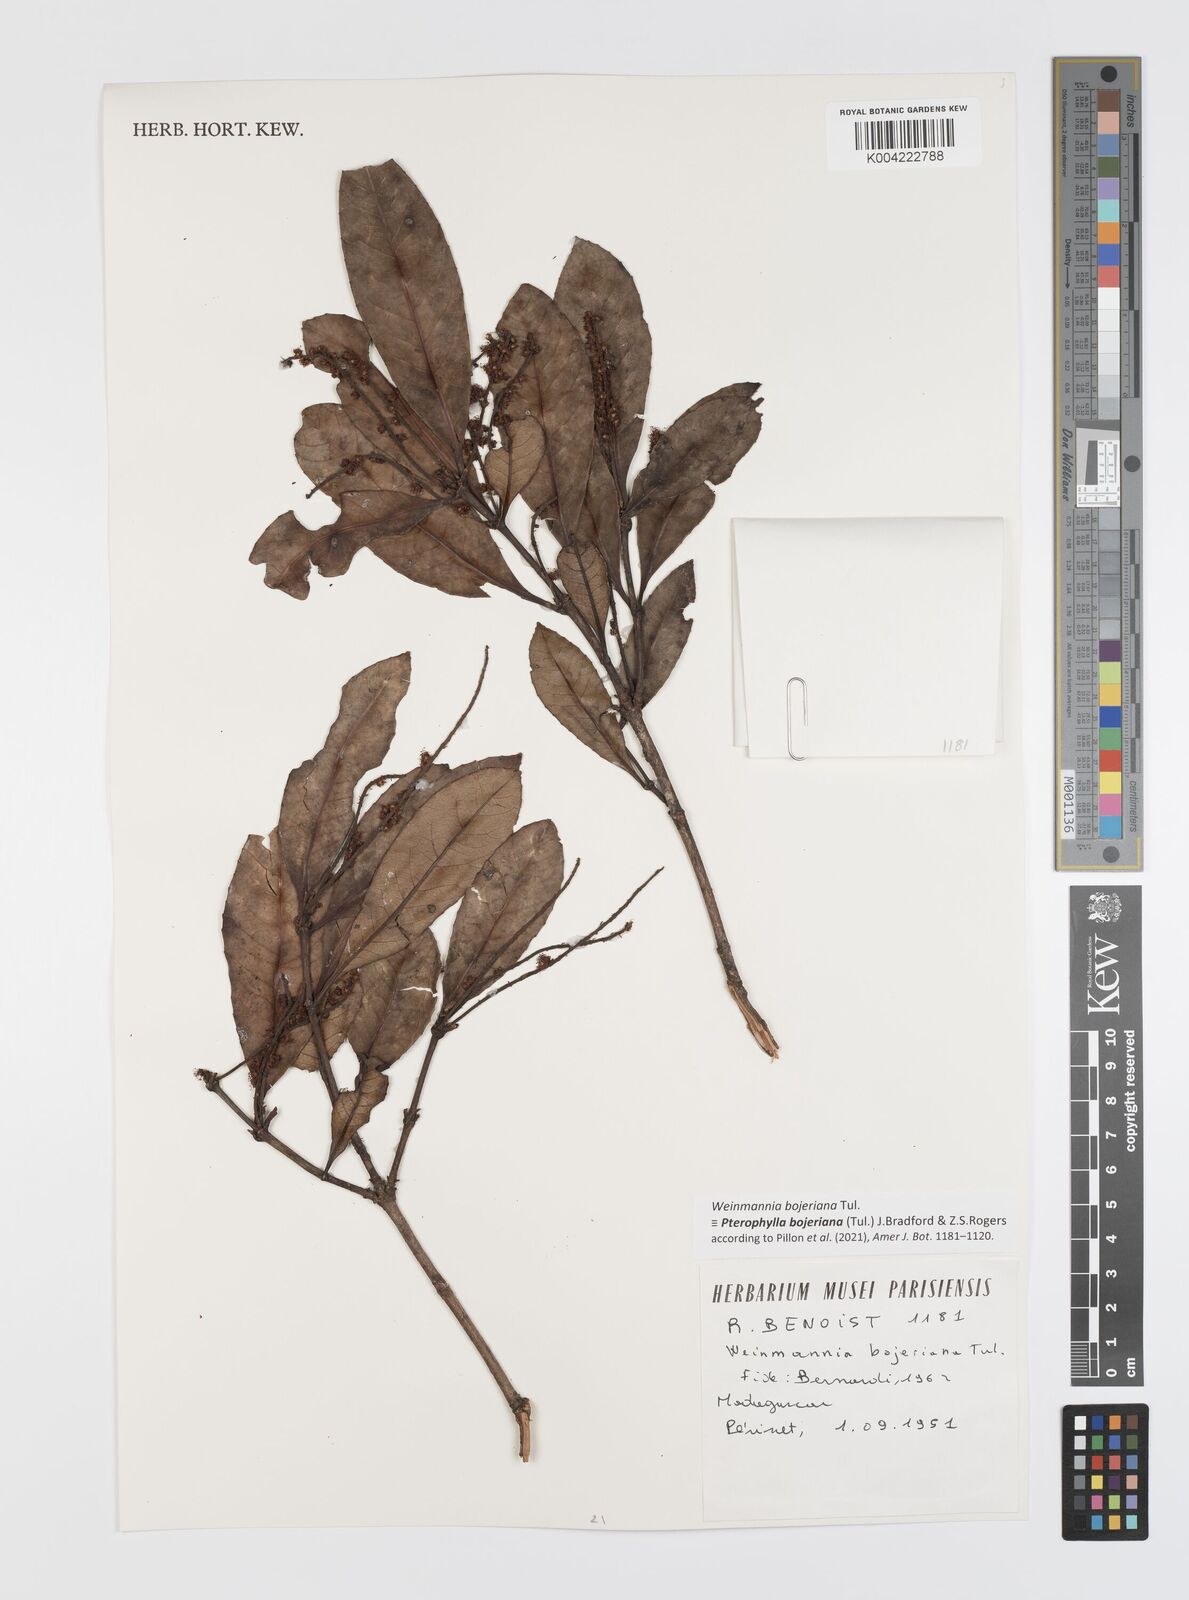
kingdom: Plantae
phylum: Tracheophyta
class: Magnoliopsida
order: Oxalidales
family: Cunoniaceae
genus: Pterophylla
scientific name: Pterophylla
